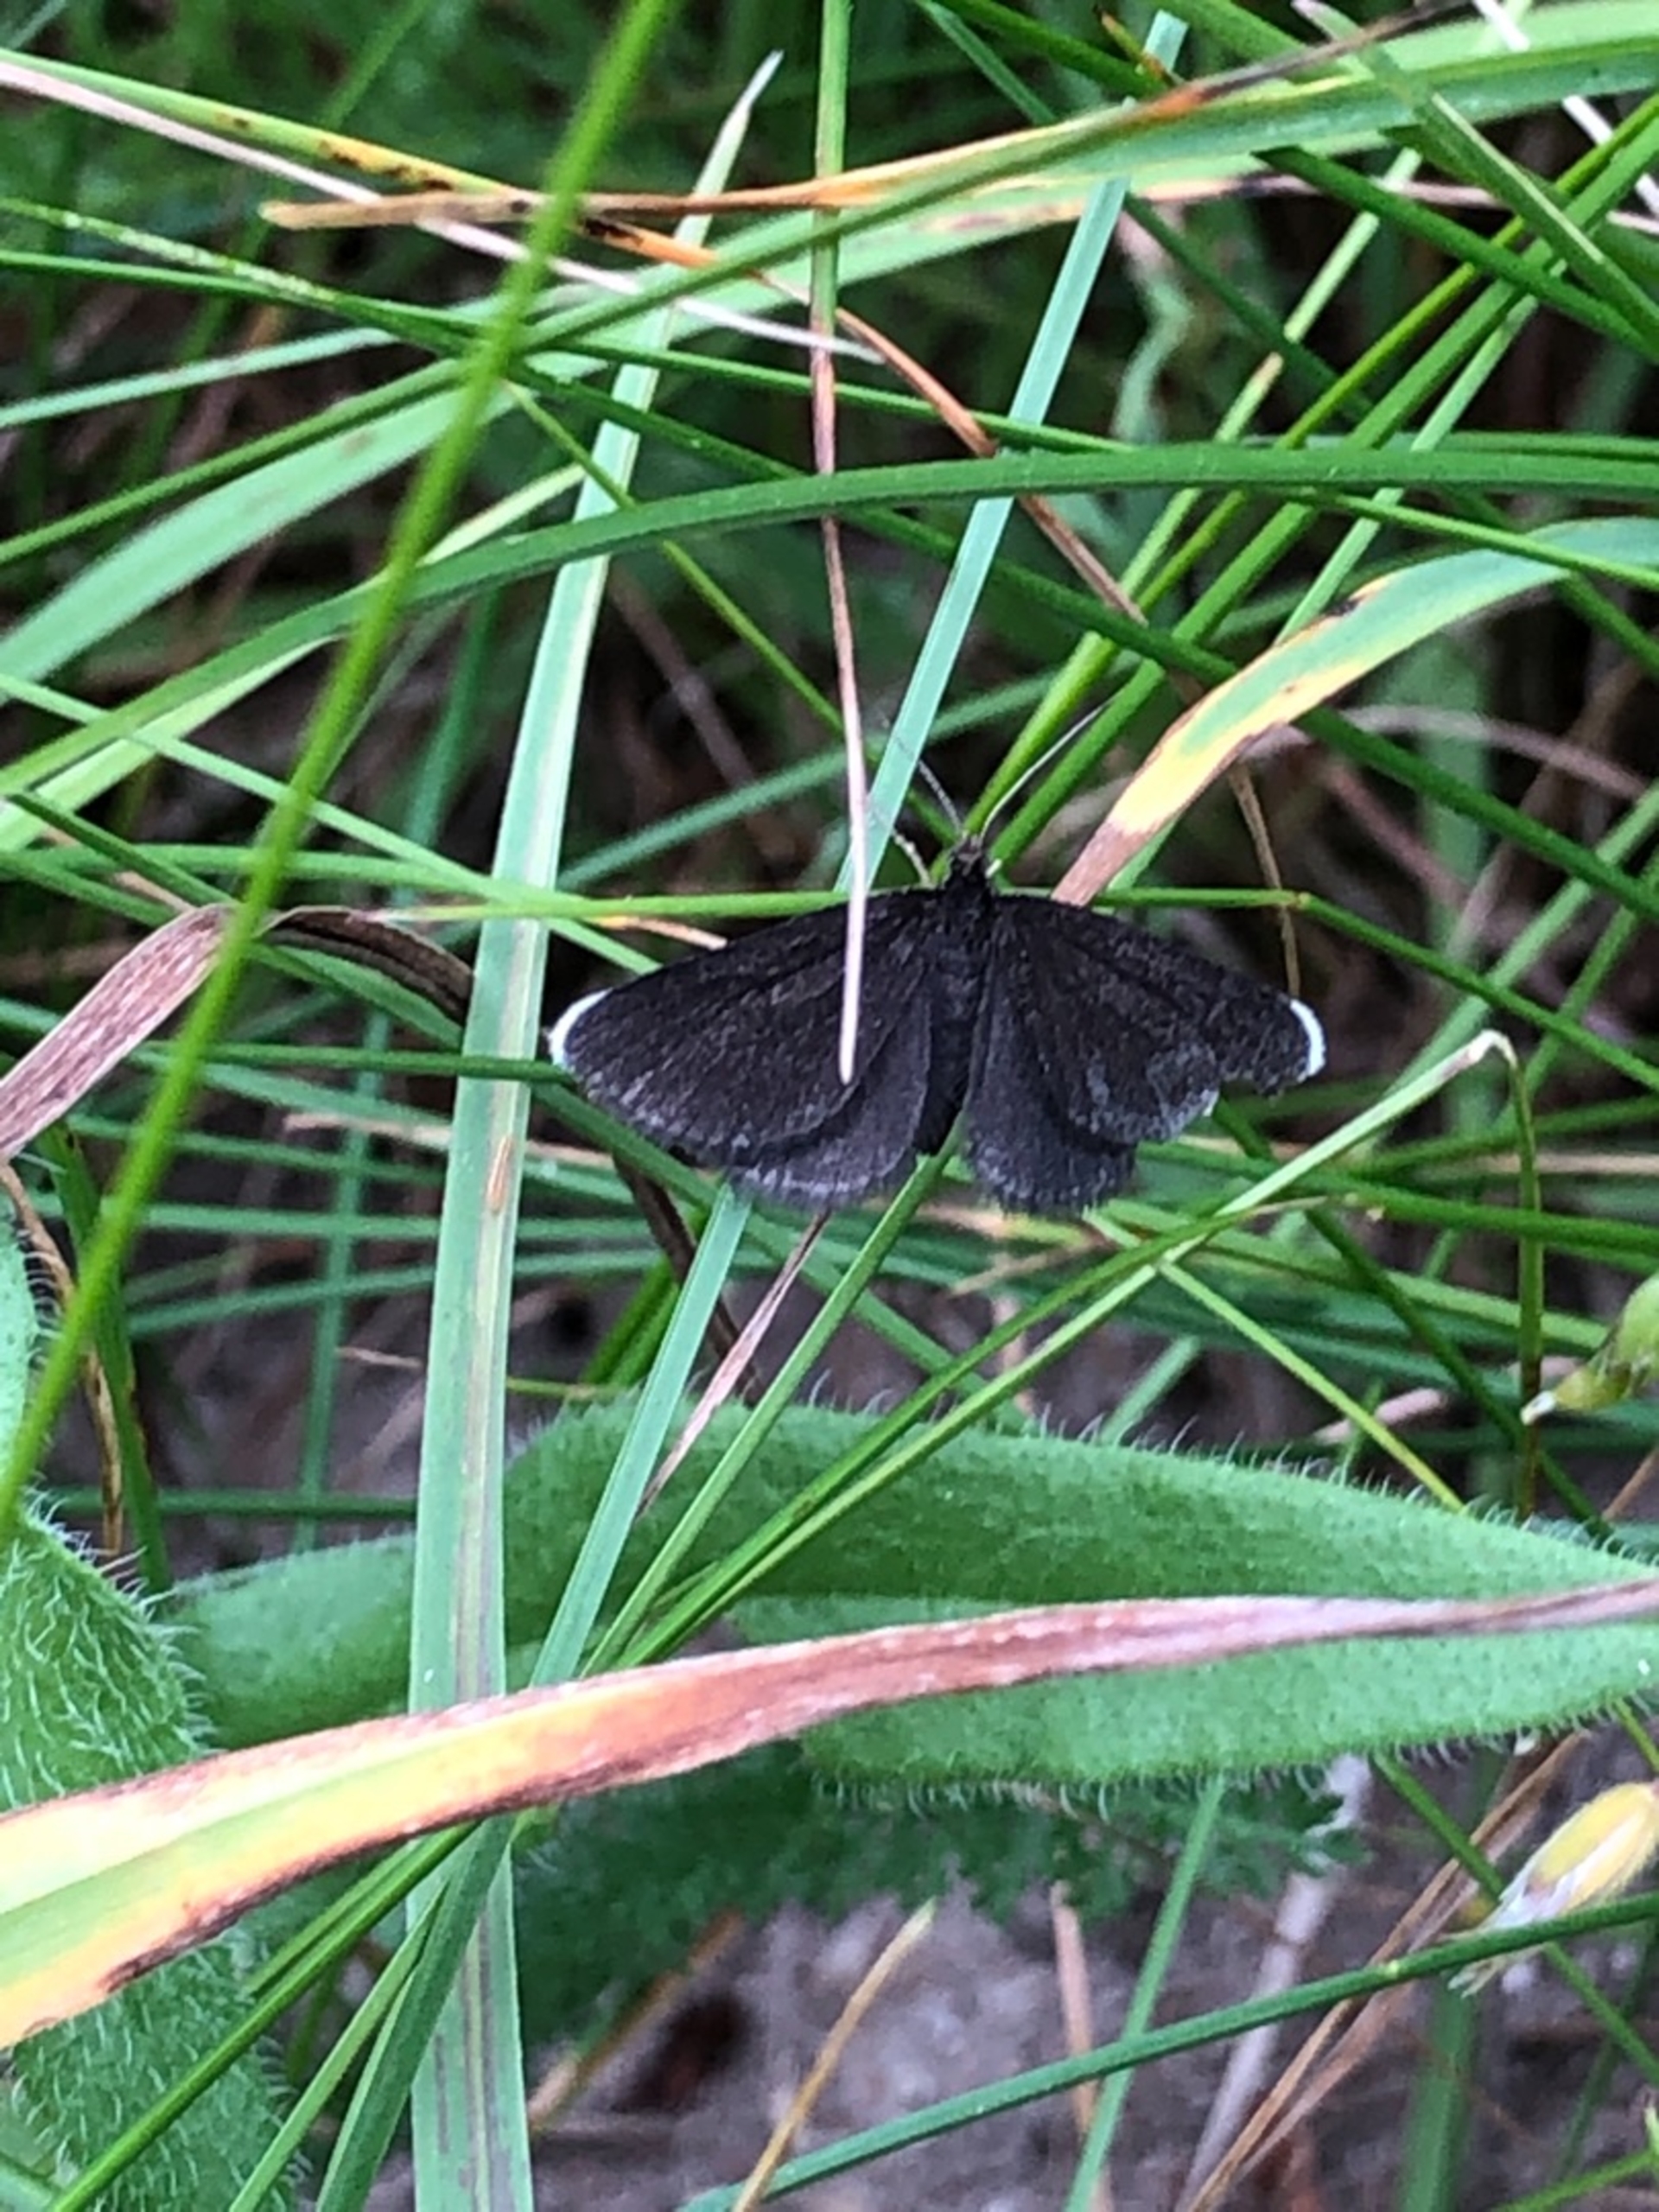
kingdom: Animalia
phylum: Arthropoda
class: Insecta
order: Lepidoptera
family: Geometridae
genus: Odezia
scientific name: Odezia atrata
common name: Sort måler
